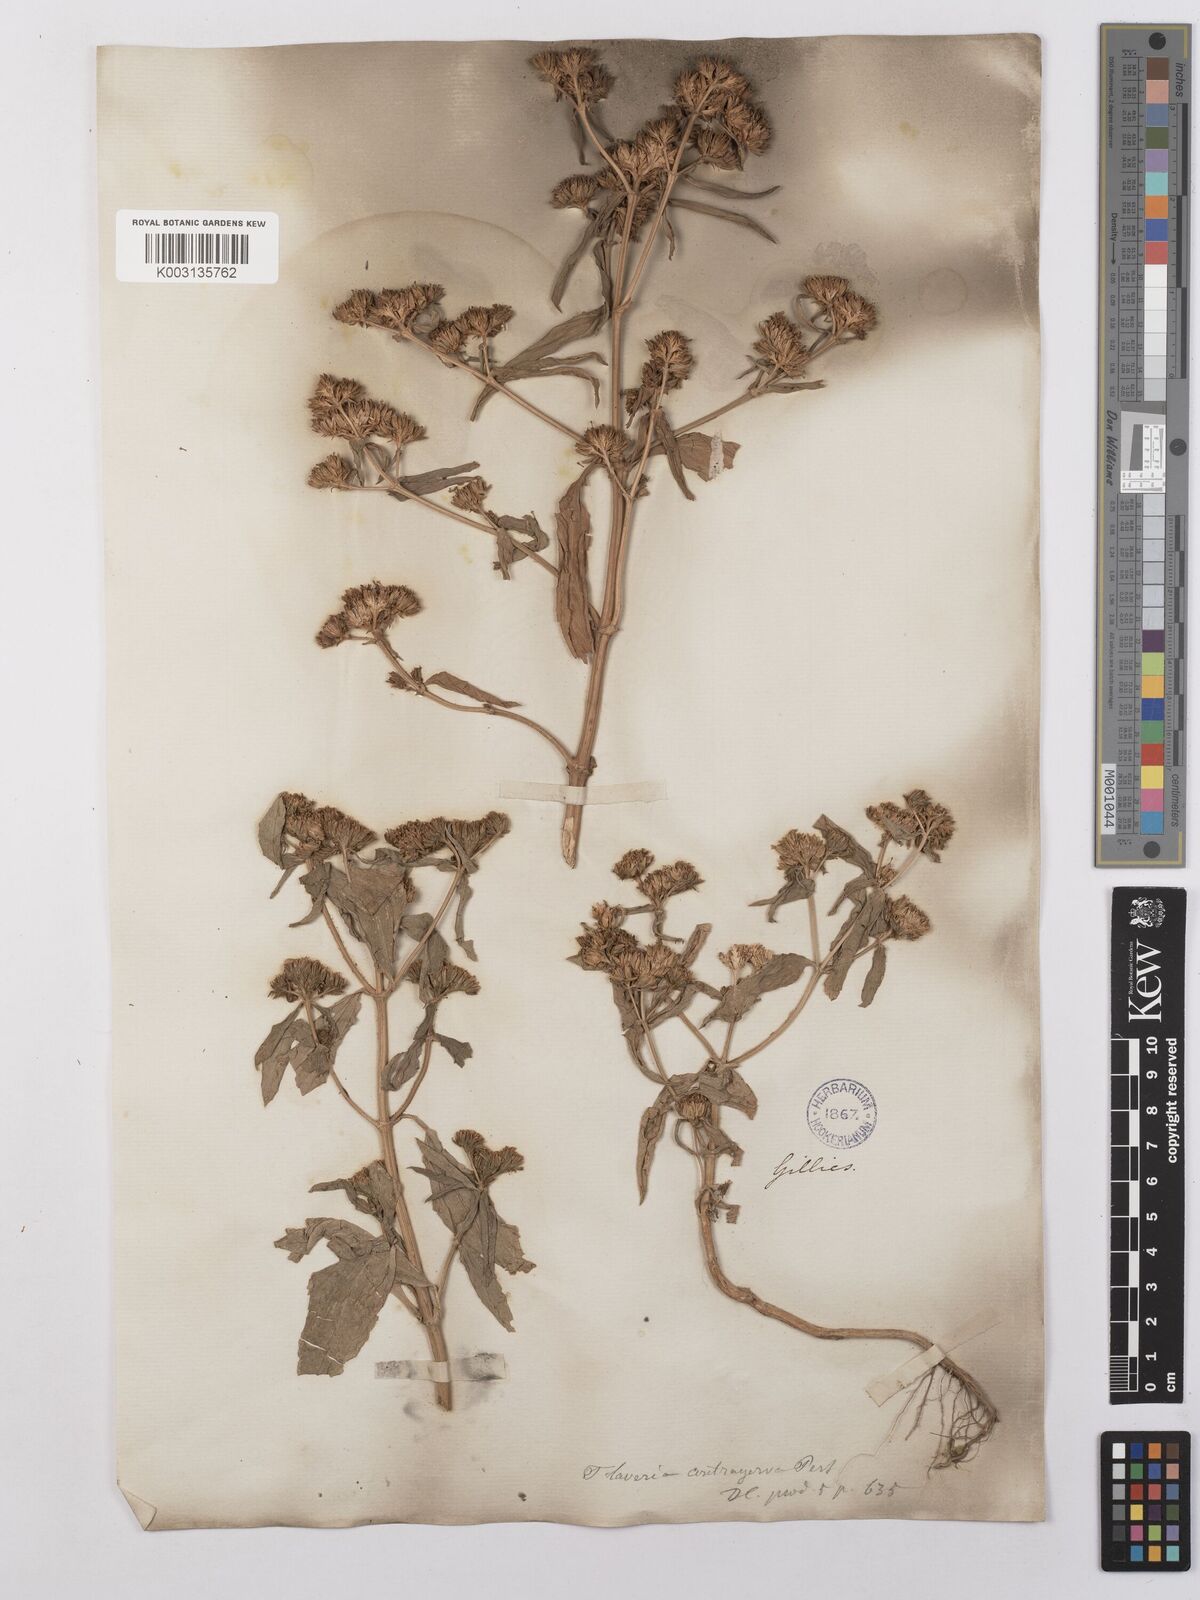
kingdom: Plantae
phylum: Tracheophyta
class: Magnoliopsida
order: Asterales
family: Asteraceae
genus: Flaveria
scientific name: Flaveria bidentis
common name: Coastal plain yellowtops
